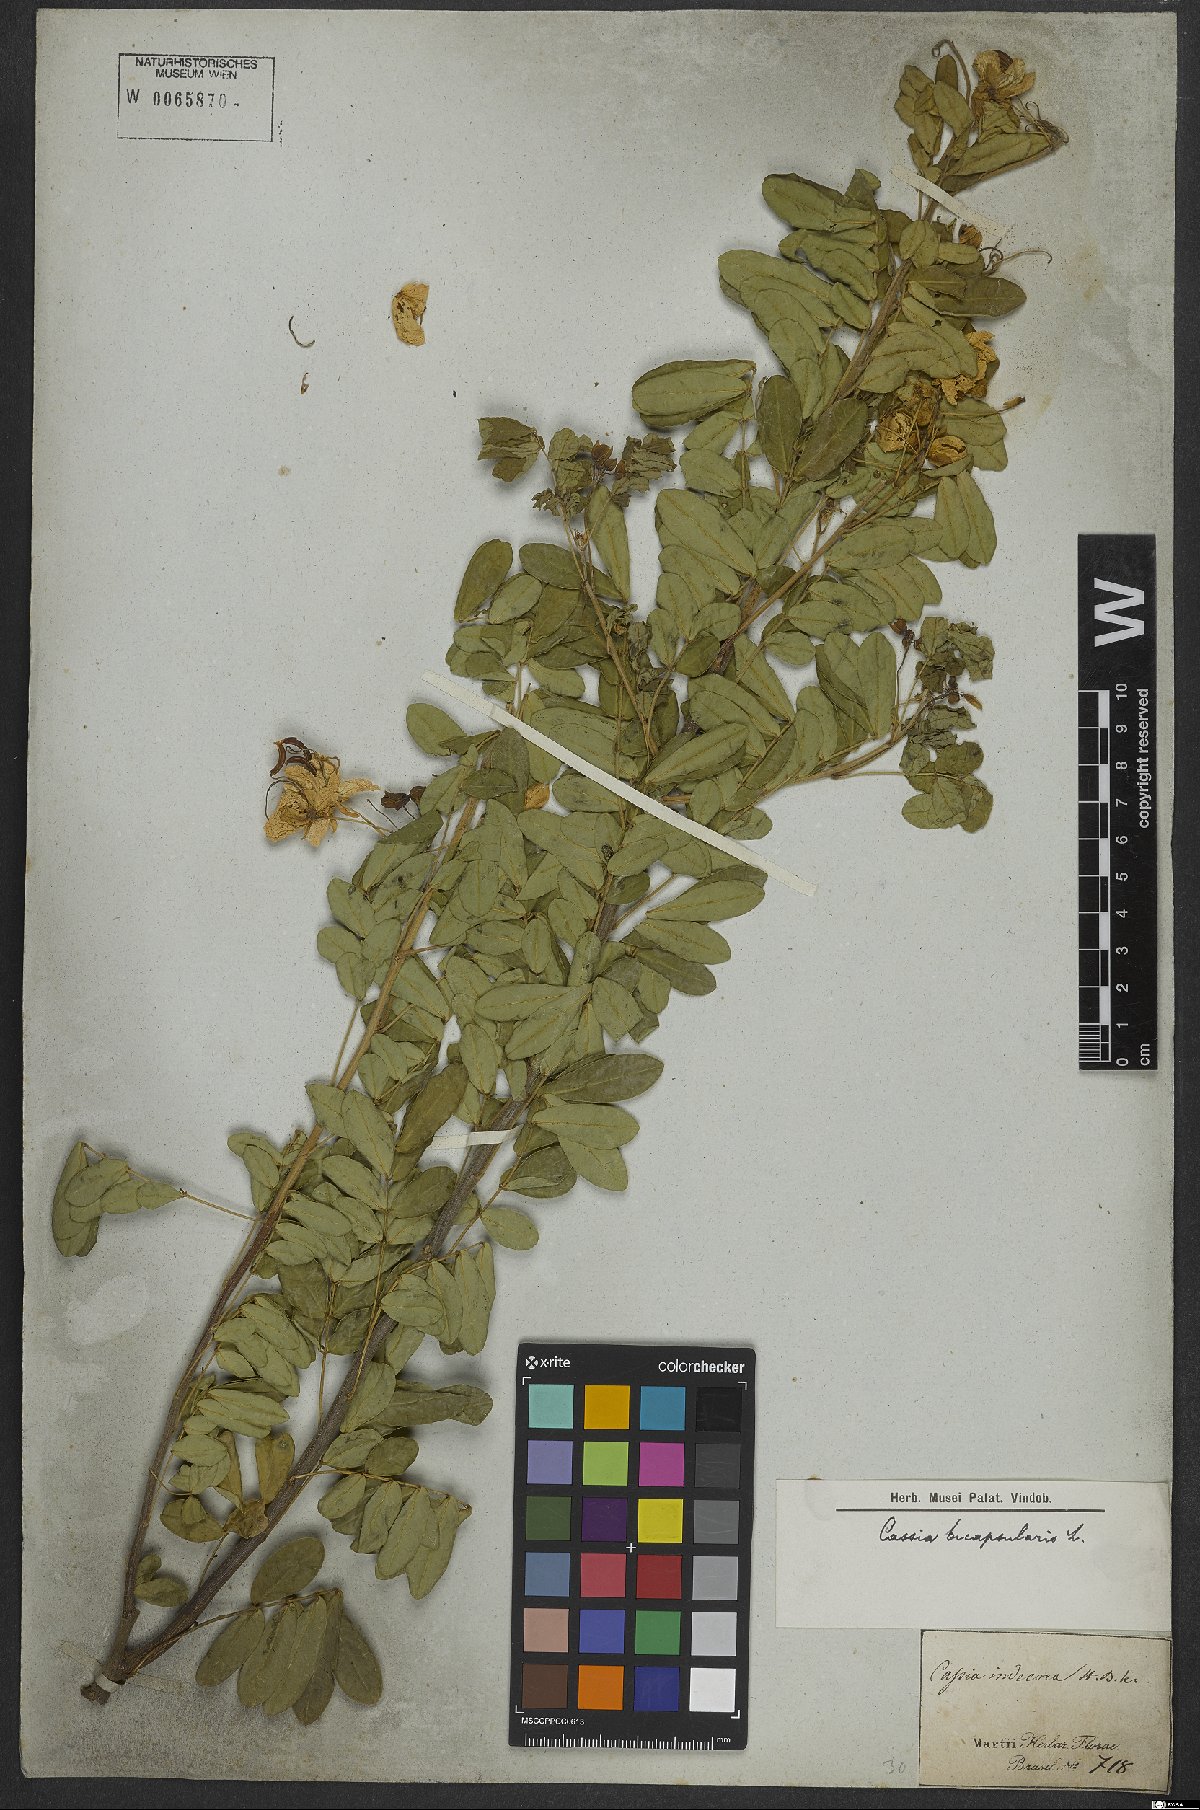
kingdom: Plantae
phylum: Tracheophyta
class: Magnoliopsida
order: Fabales
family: Fabaceae
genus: Senna
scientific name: Senna bicapsularis
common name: Christmasbush
